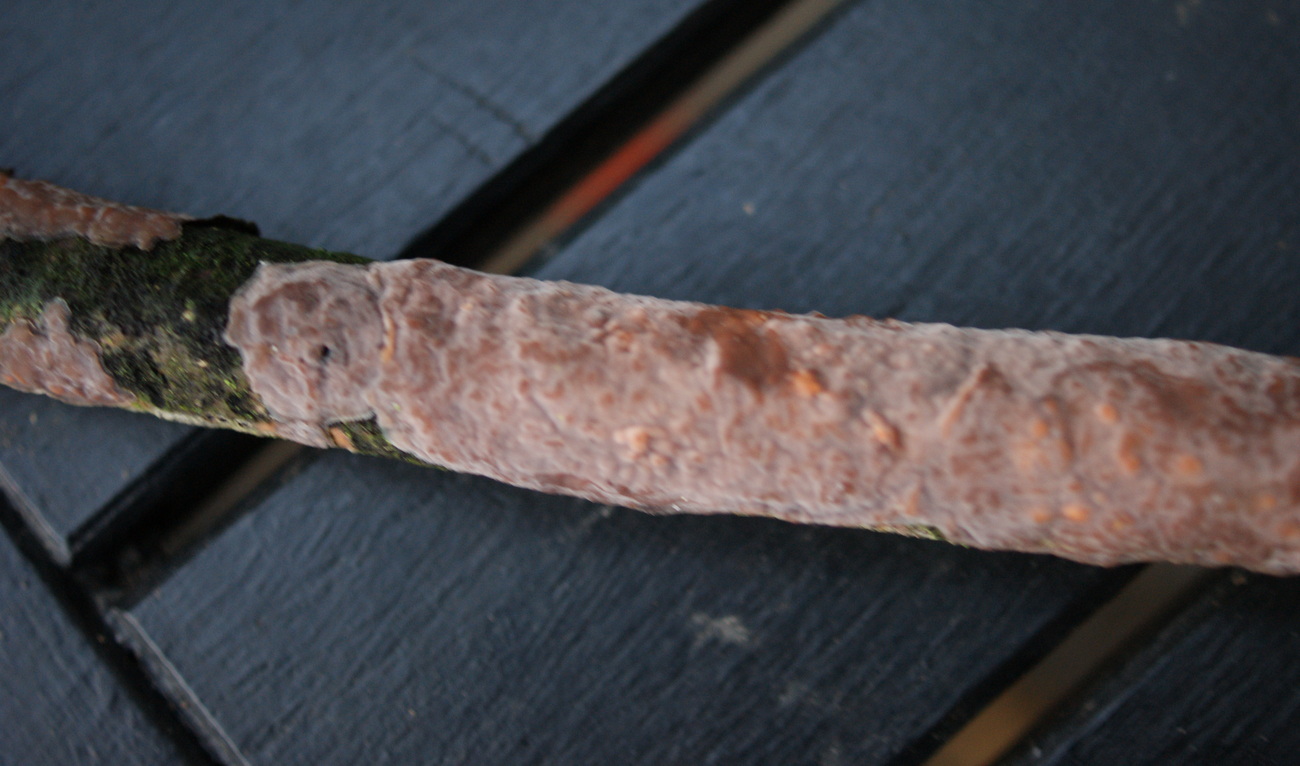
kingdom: Fungi
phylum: Basidiomycota
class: Agaricomycetes
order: Russulales
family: Peniophoraceae
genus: Peniophora
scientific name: Peniophora quercina
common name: ege-voksskind
